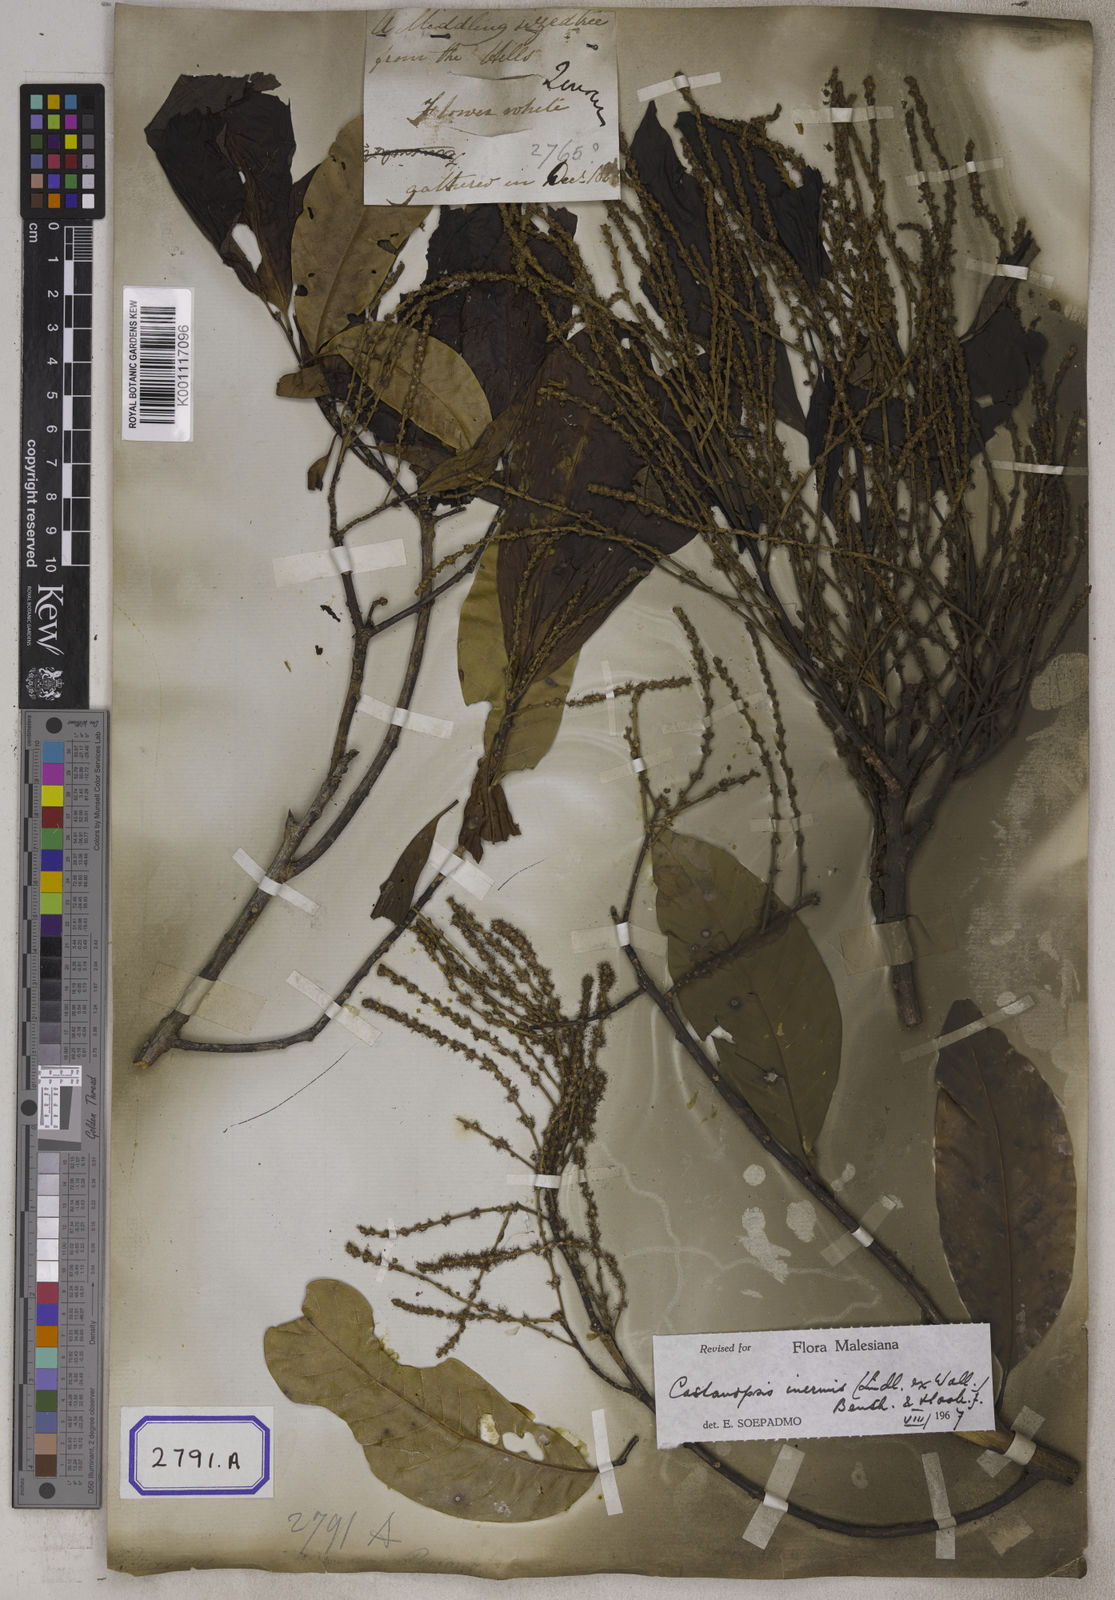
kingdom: Plantae
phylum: Tracheophyta
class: Magnoliopsida
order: Fagales
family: Fagaceae
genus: Castanopsis
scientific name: Castanopsis inermis
